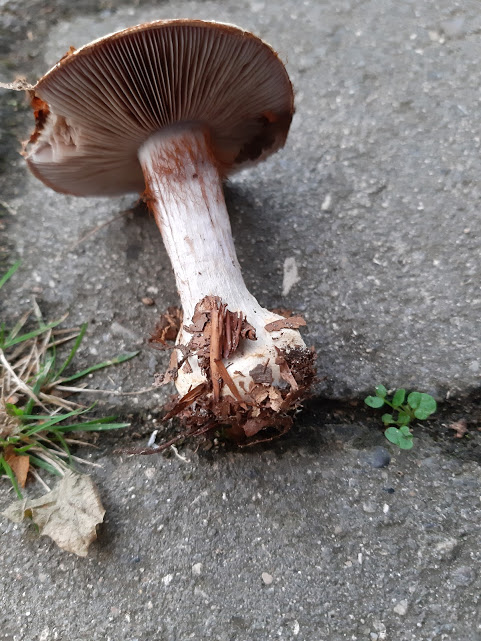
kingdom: Fungi
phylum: Basidiomycota
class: Agaricomycetes
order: Agaricales
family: Cortinariaceae
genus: Cortinarius
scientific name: Cortinarius anserinus
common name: bøge-slørhat
